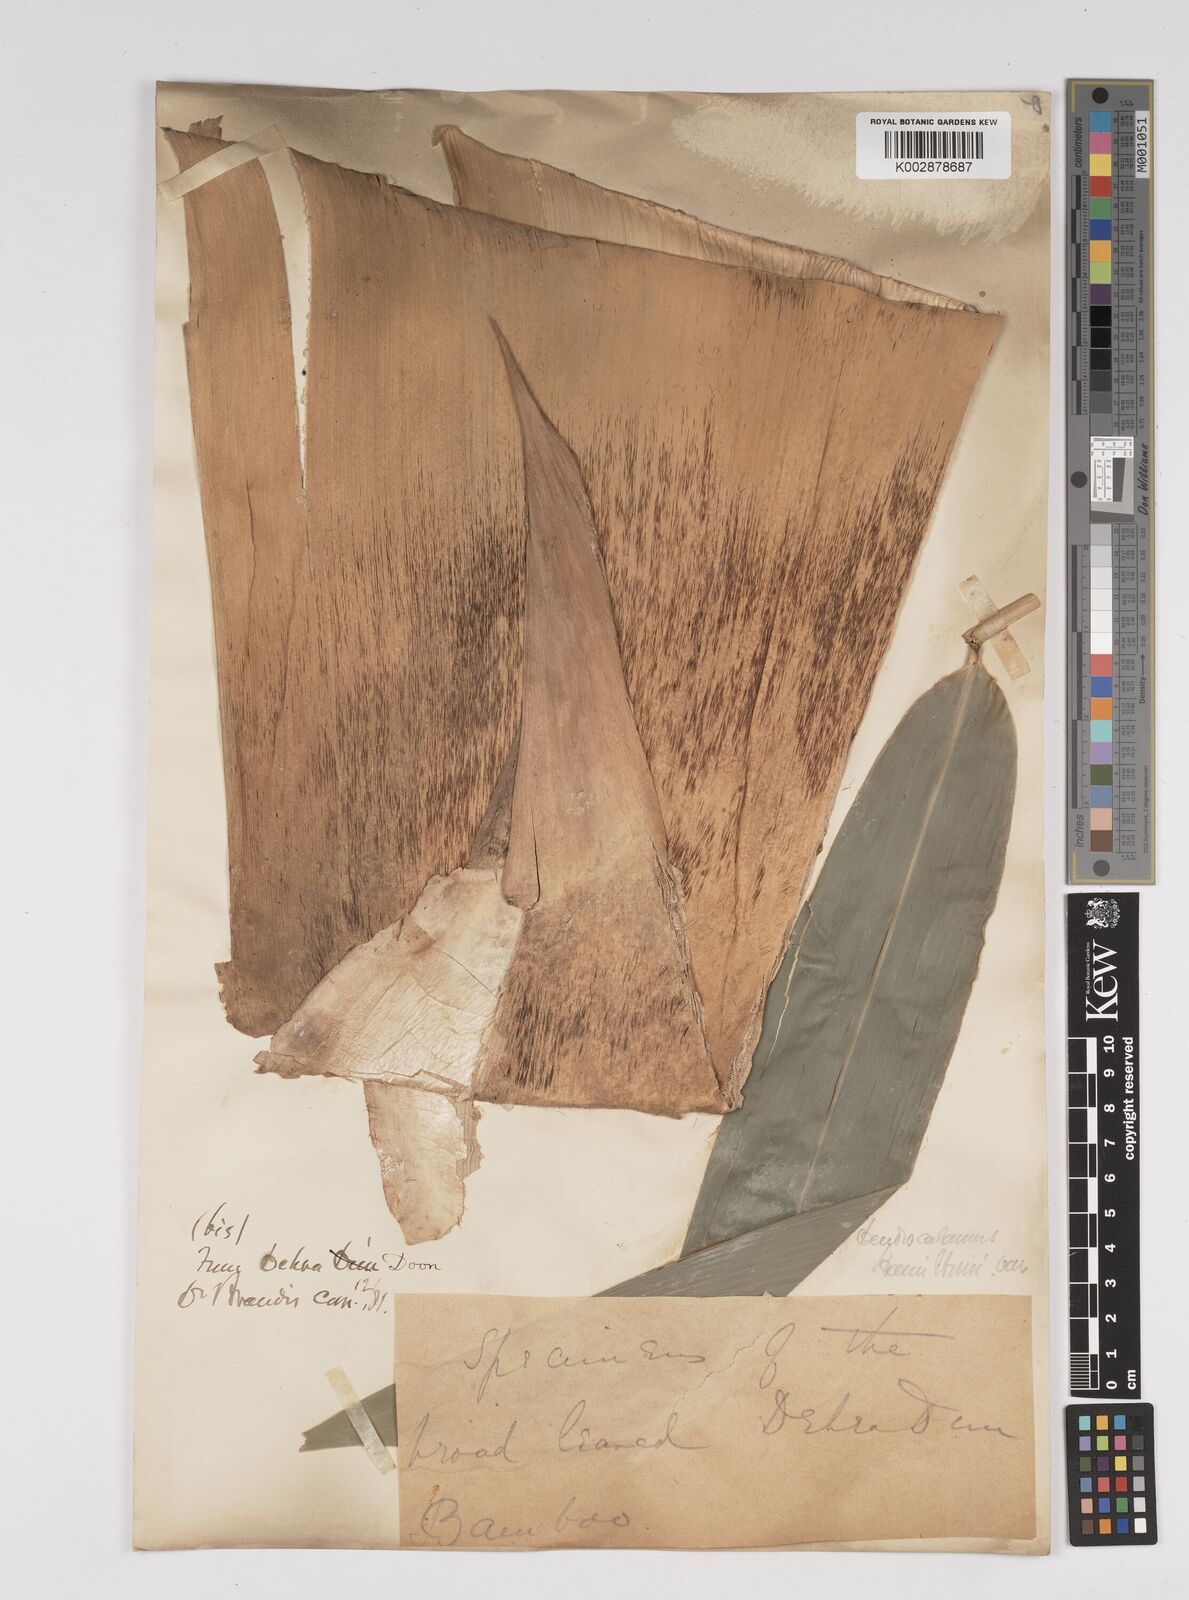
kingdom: Plantae
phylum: Tracheophyta
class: Liliopsida
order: Poales
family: Poaceae
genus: Dendrocalamus
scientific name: Dendrocalamus hamiltonii
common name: Tama bamboo
